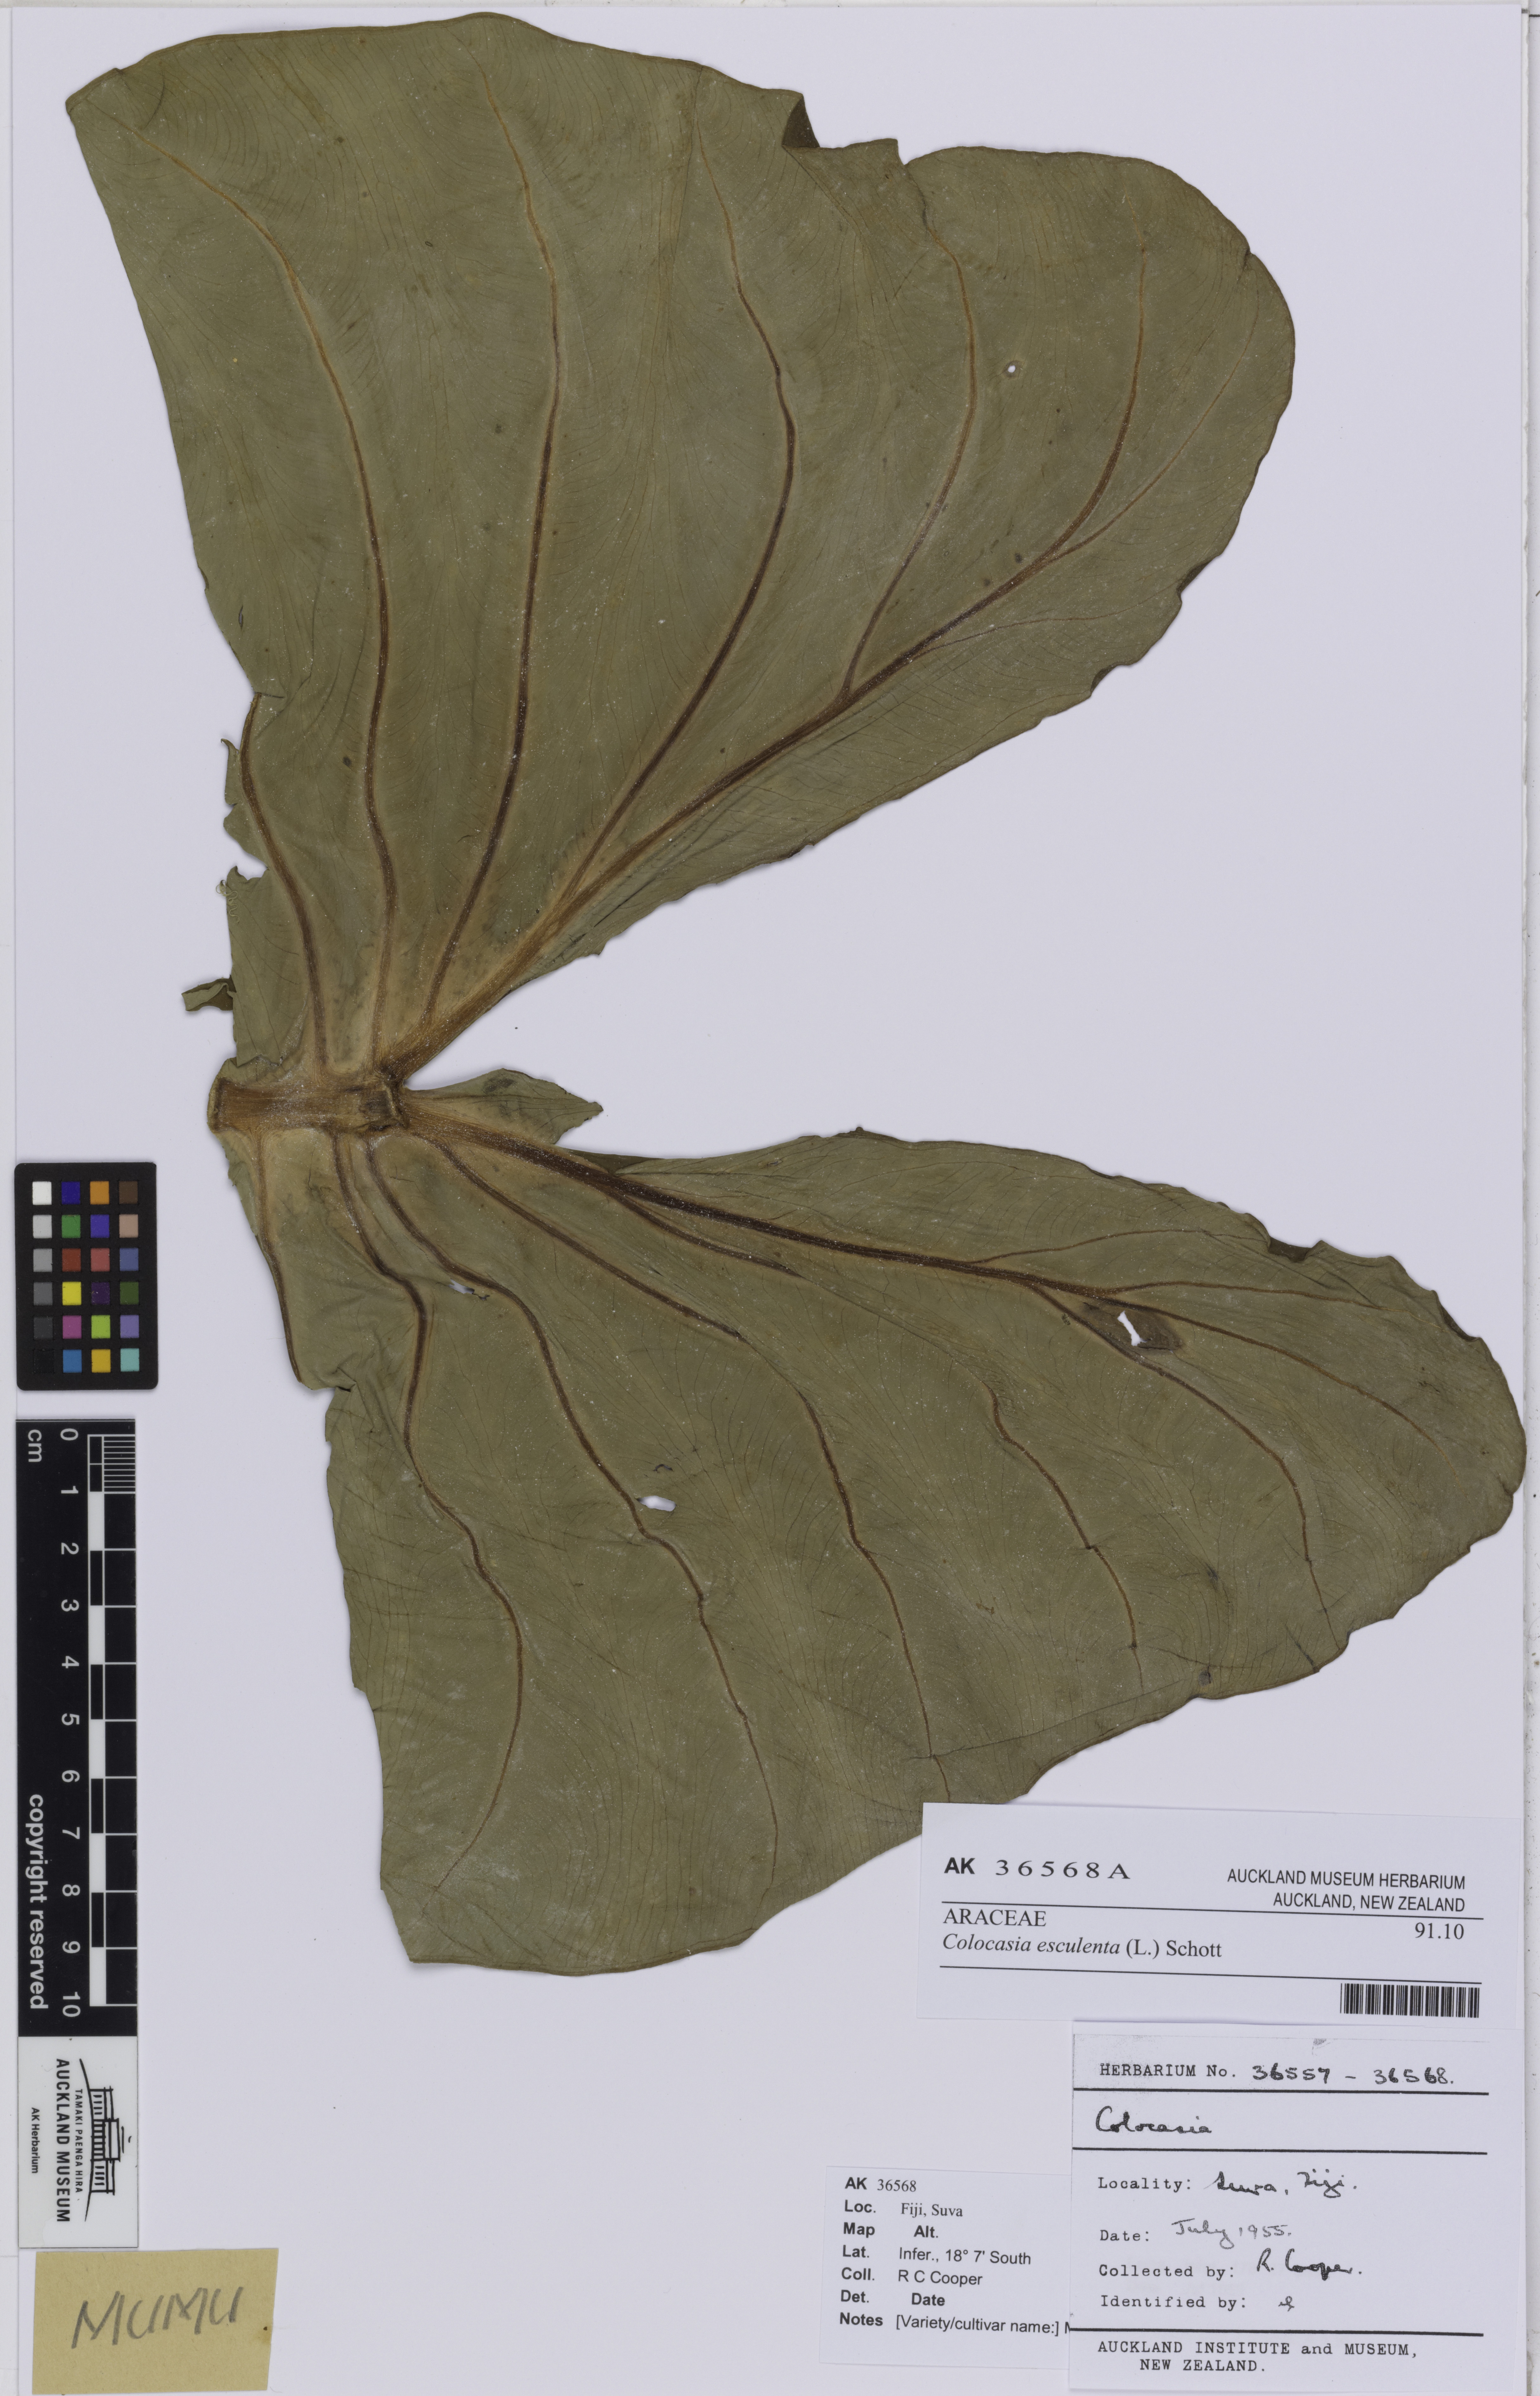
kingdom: Plantae
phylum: Tracheophyta
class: Liliopsida
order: Alismatales
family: Araceae
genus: Colocasia
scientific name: Colocasia esculenta
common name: Taro
